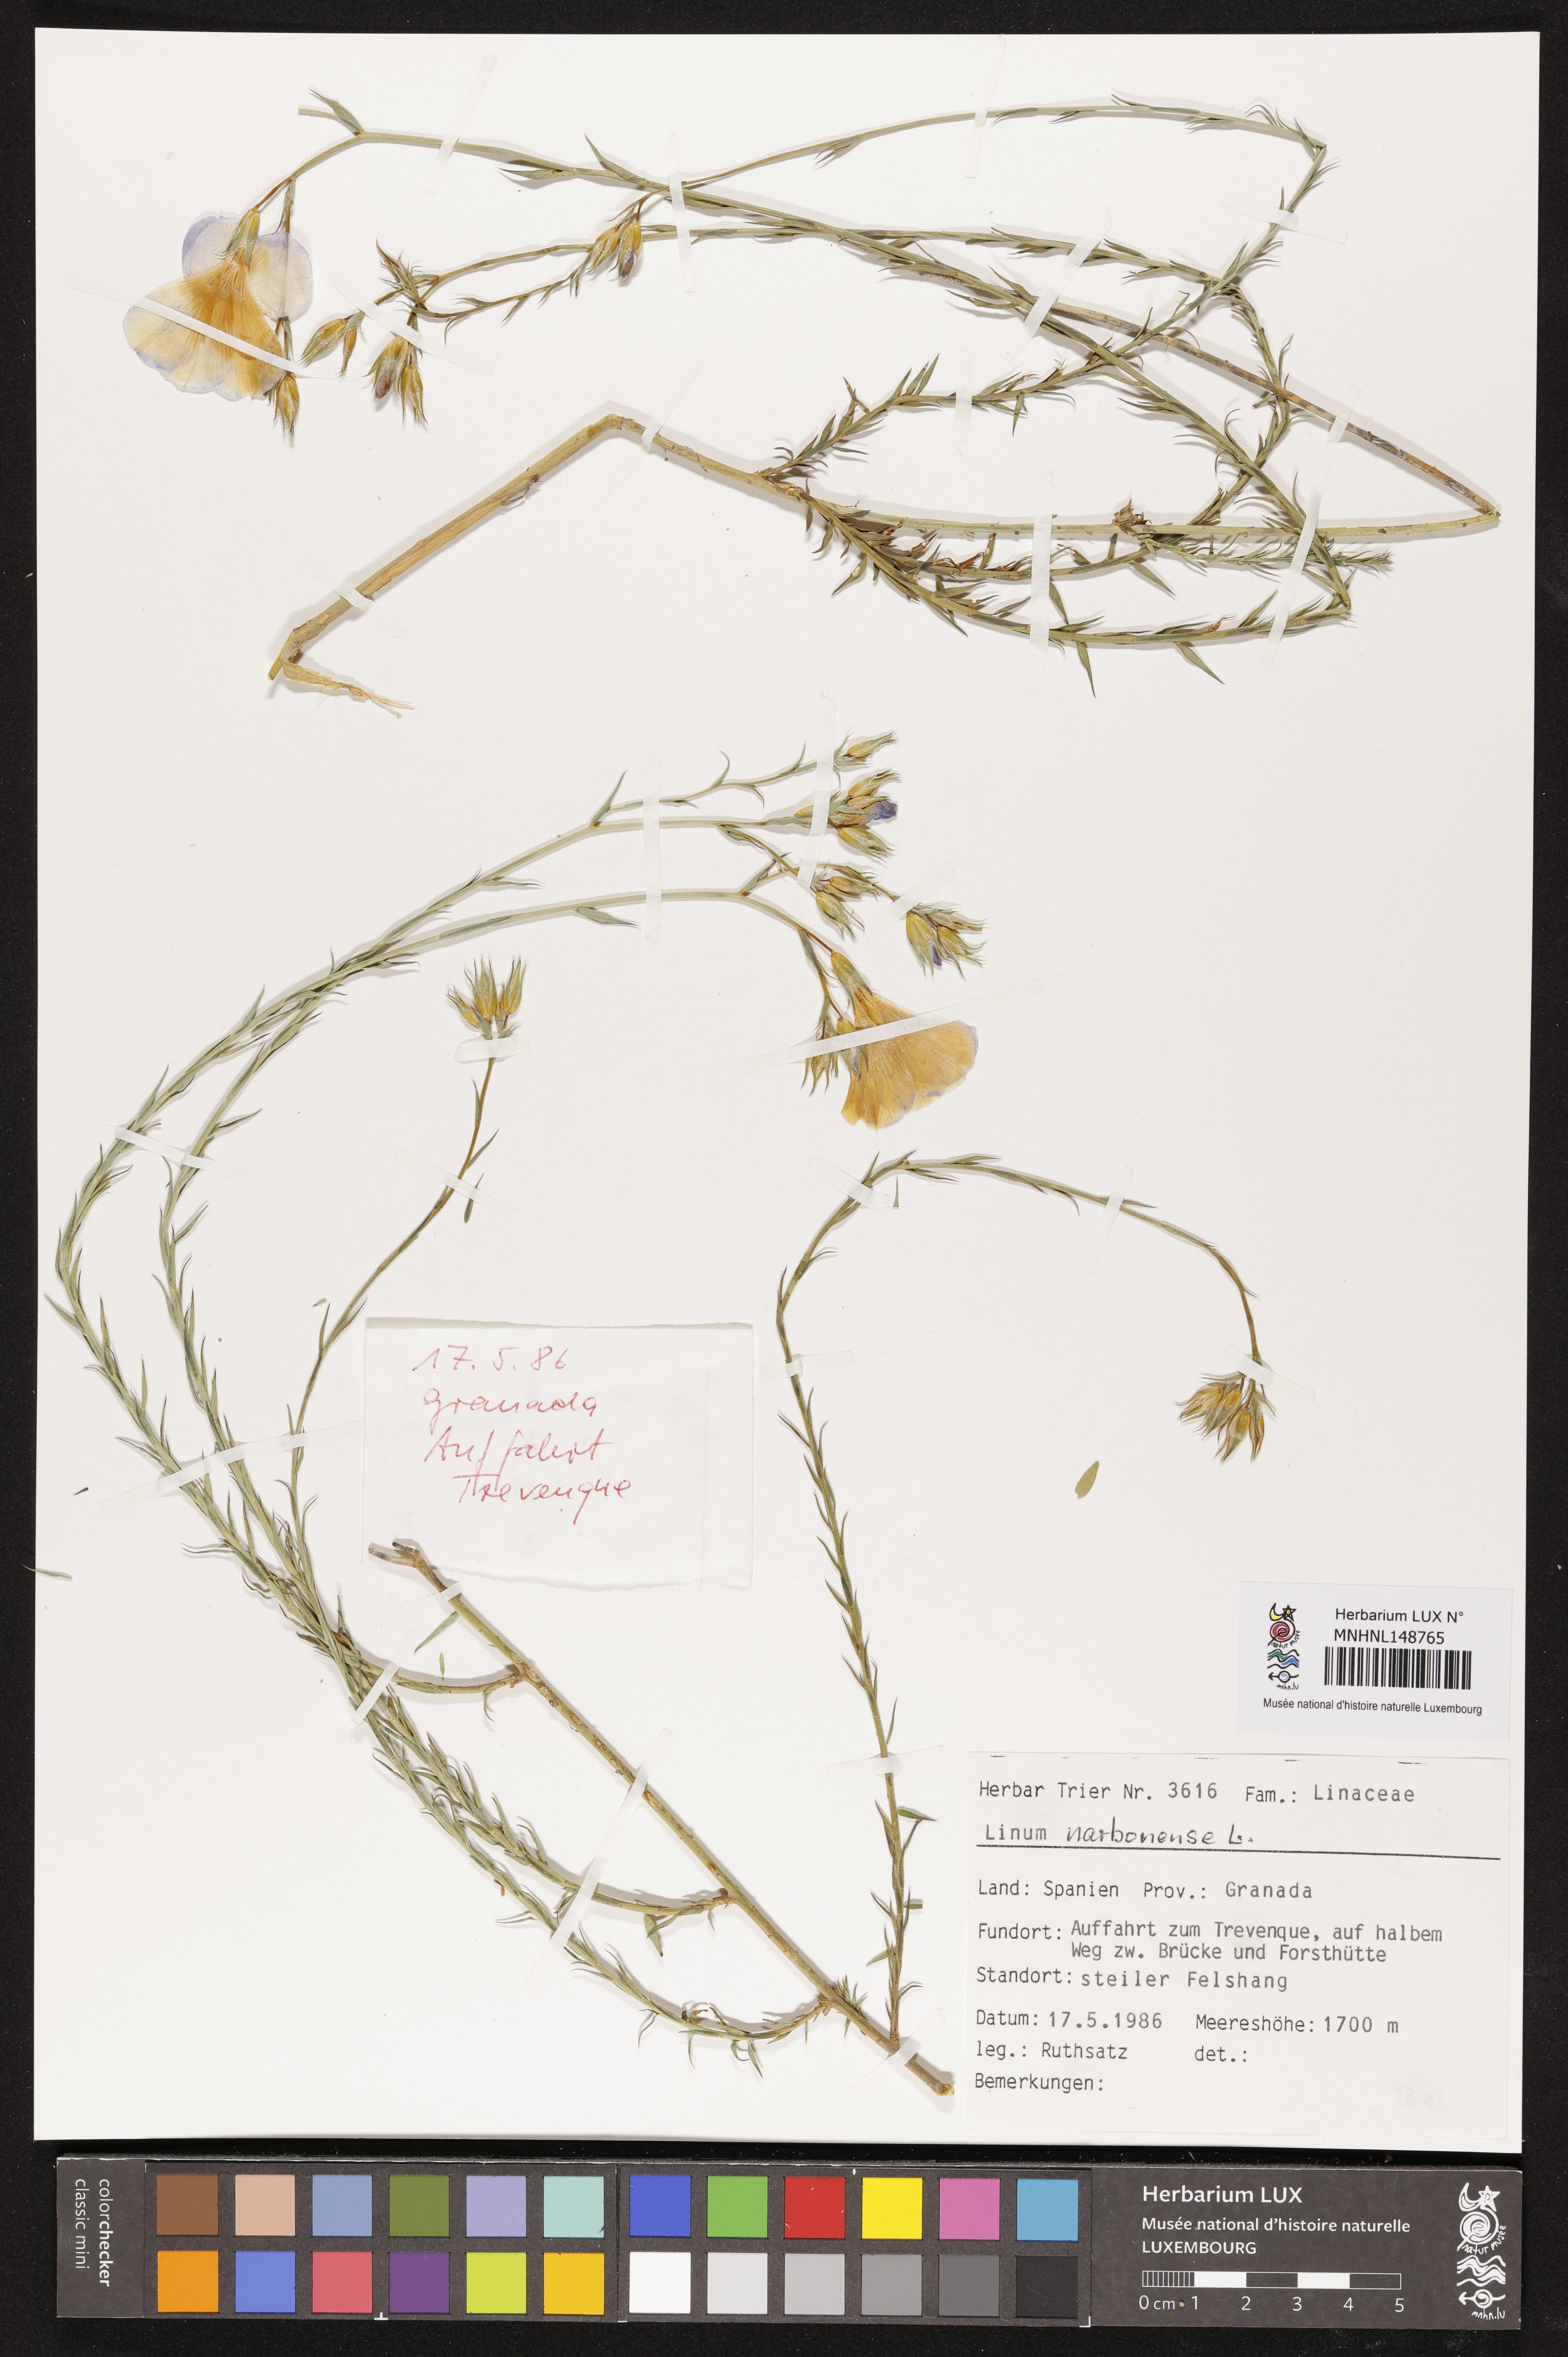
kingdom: Plantae
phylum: Tracheophyta
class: Magnoliopsida
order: Malpighiales
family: Linaceae
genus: Linum
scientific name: Linum narbonense
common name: Flax
